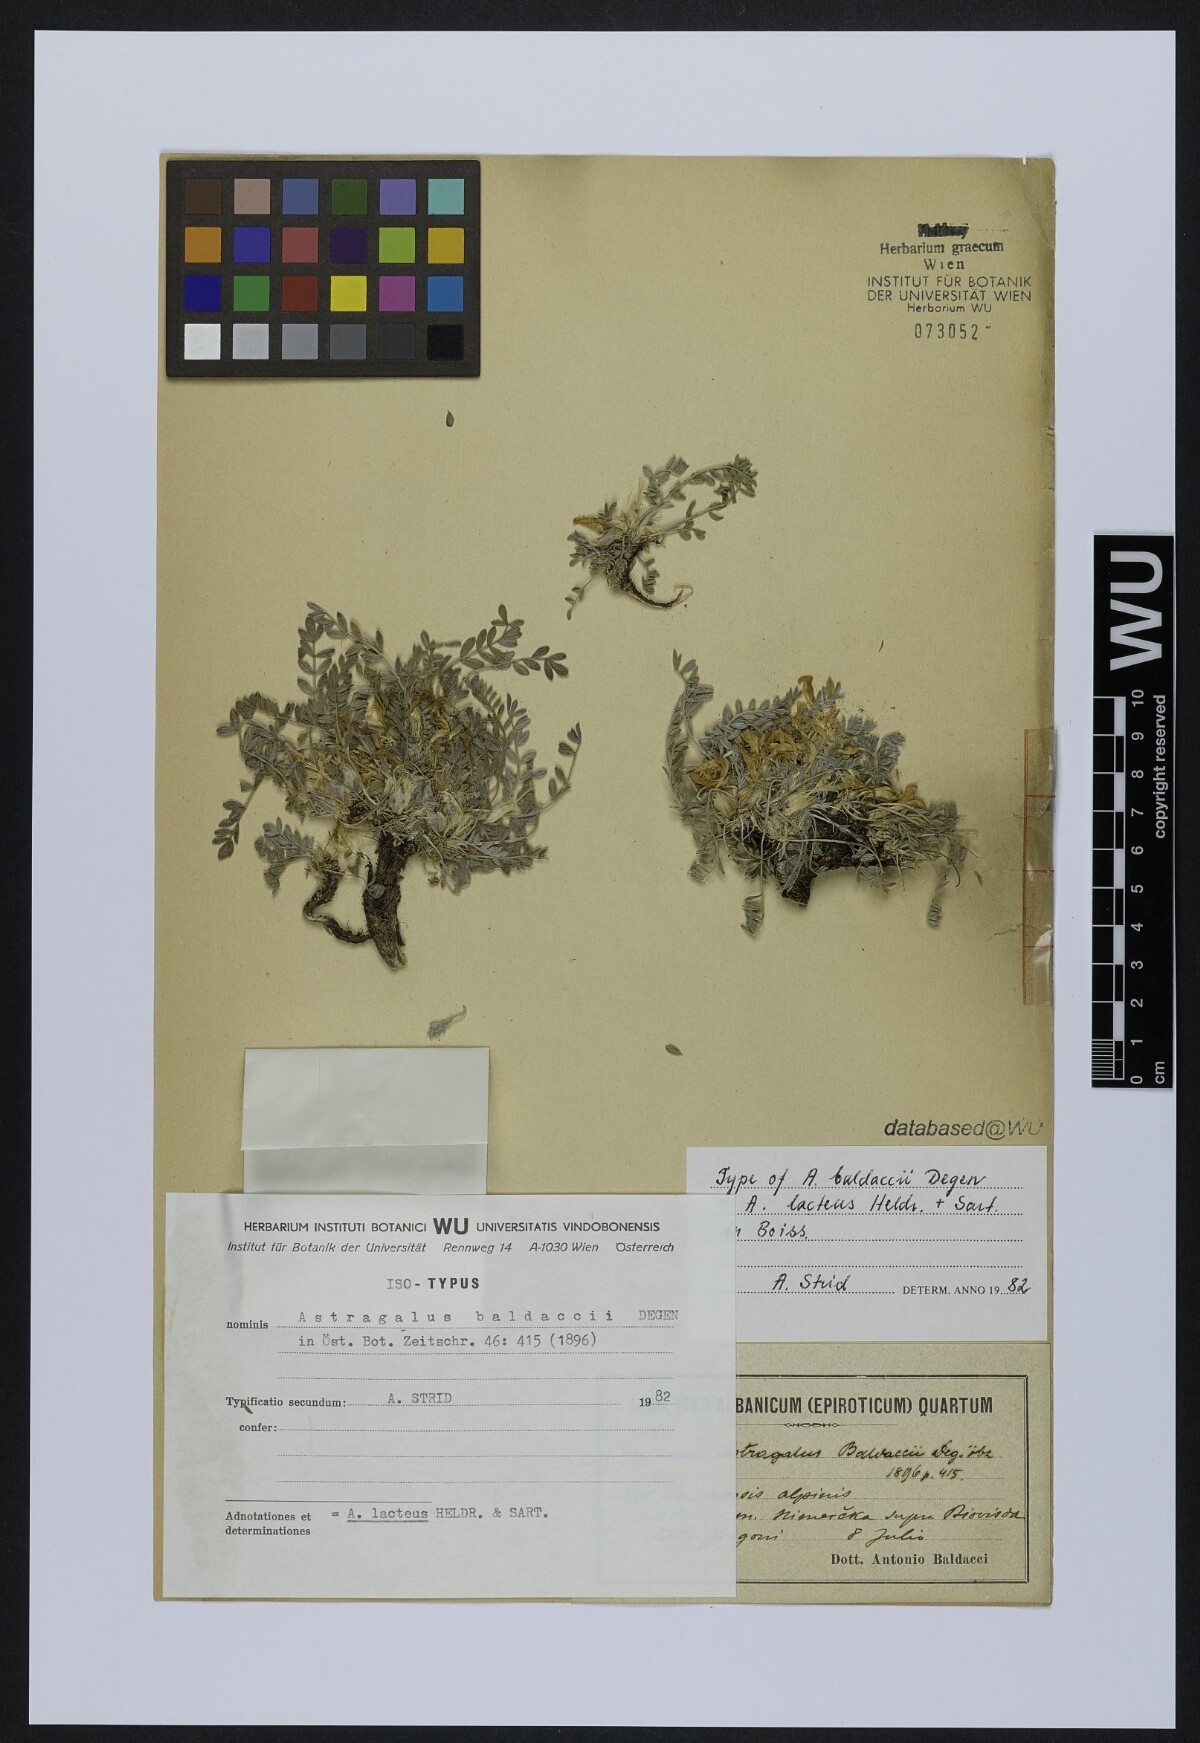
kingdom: Plantae
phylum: Tracheophyta
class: Magnoliopsida
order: Fabales
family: Fabaceae
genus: Astragalus
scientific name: Astragalus baldaccii
